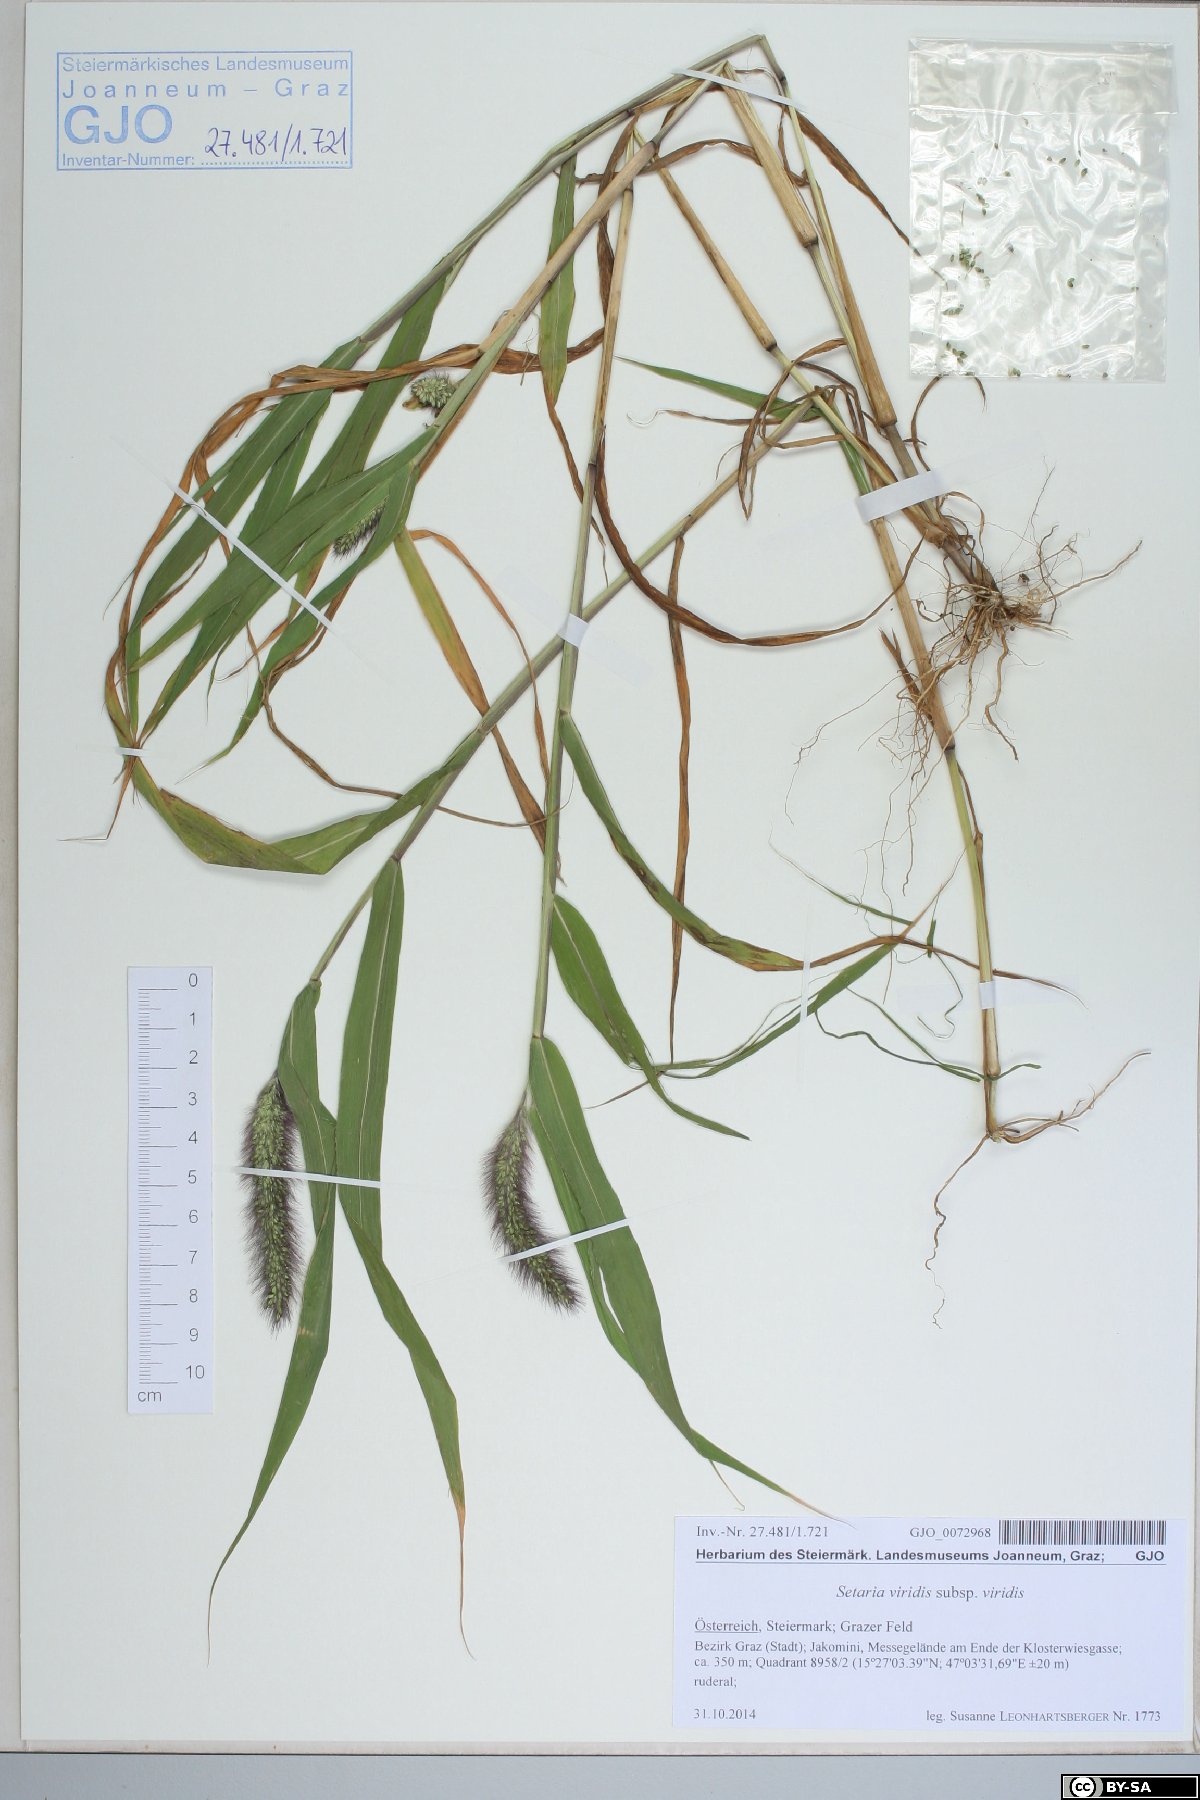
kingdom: Plantae
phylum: Tracheophyta
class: Liliopsida
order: Poales
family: Poaceae
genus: Setaria
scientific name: Setaria viridis
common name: Green bristlegrass
